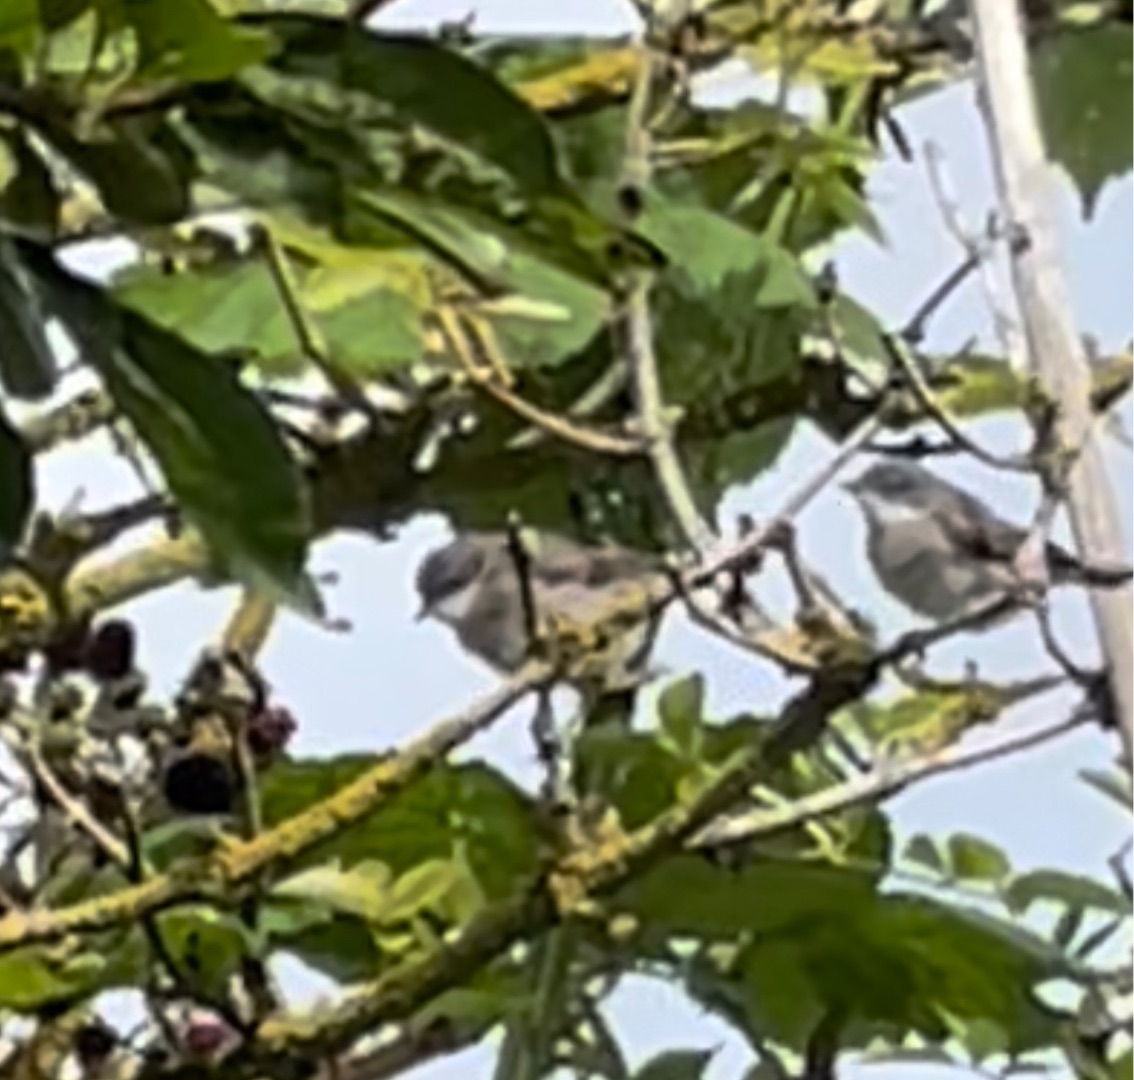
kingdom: Animalia
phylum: Chordata
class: Aves
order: Passeriformes
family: Sylviidae
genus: Sylvia
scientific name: Sylvia curruca
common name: Gærdesanger
